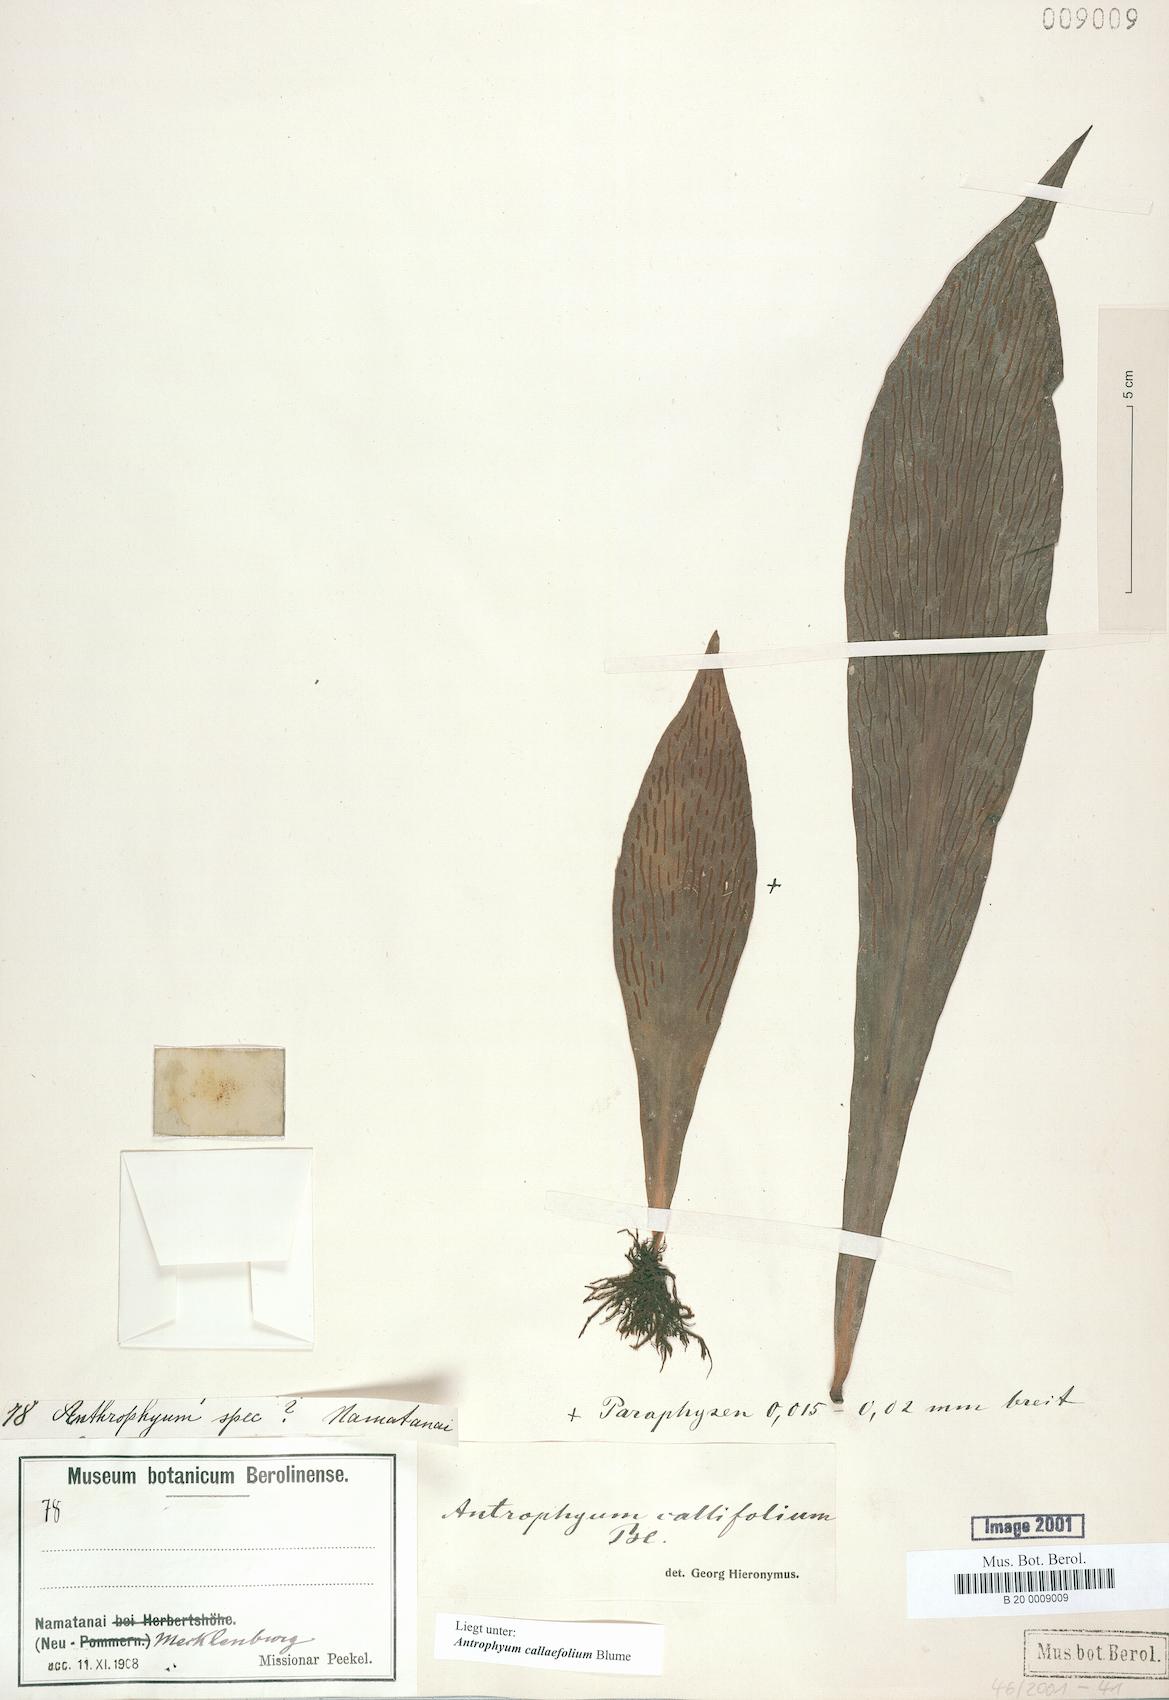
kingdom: Plantae
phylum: Tracheophyta
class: Polypodiopsida
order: Polypodiales
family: Pteridaceae
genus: Antrophyum
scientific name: Antrophyum callifolium
